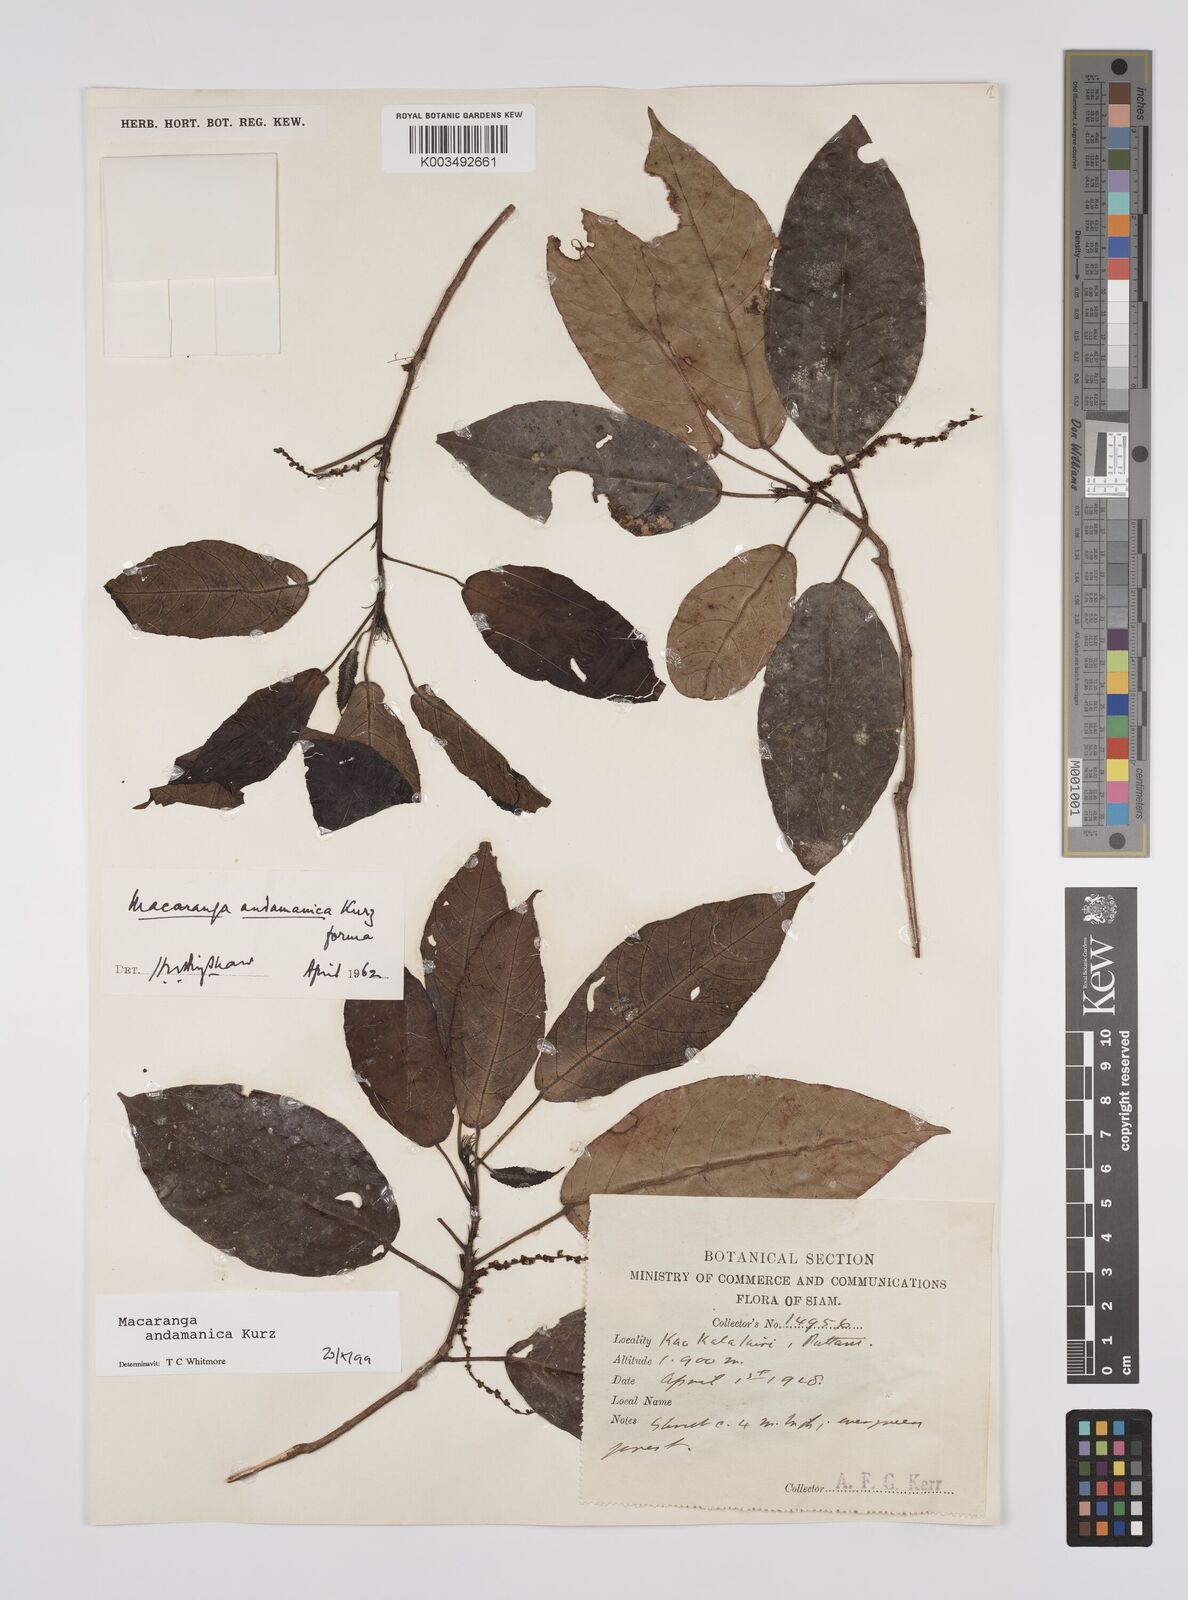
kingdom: Plantae
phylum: Tracheophyta
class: Magnoliopsida
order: Malpighiales
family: Euphorbiaceae
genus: Macaranga
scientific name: Macaranga andamanica
